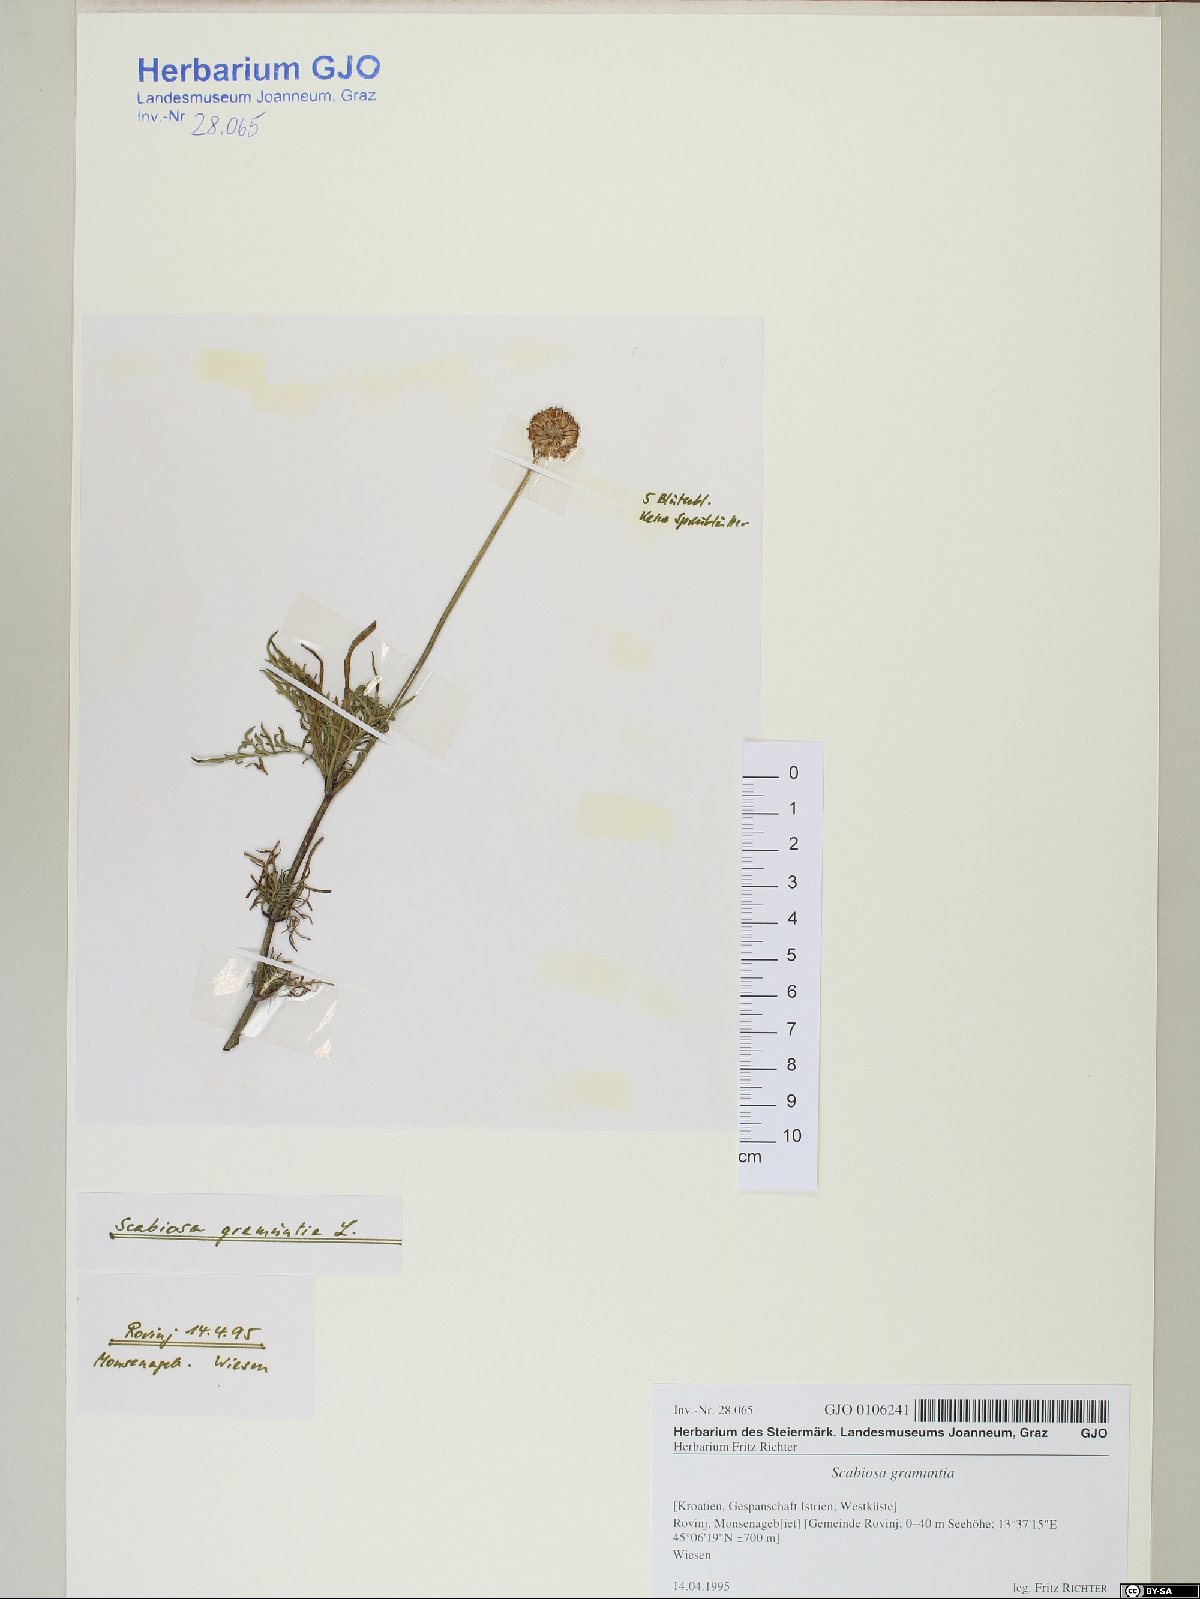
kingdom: Plantae
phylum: Tracheophyta
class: Magnoliopsida
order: Dipsacales
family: Caprifoliaceae
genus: Scabiosa
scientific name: Scabiosa triandra
